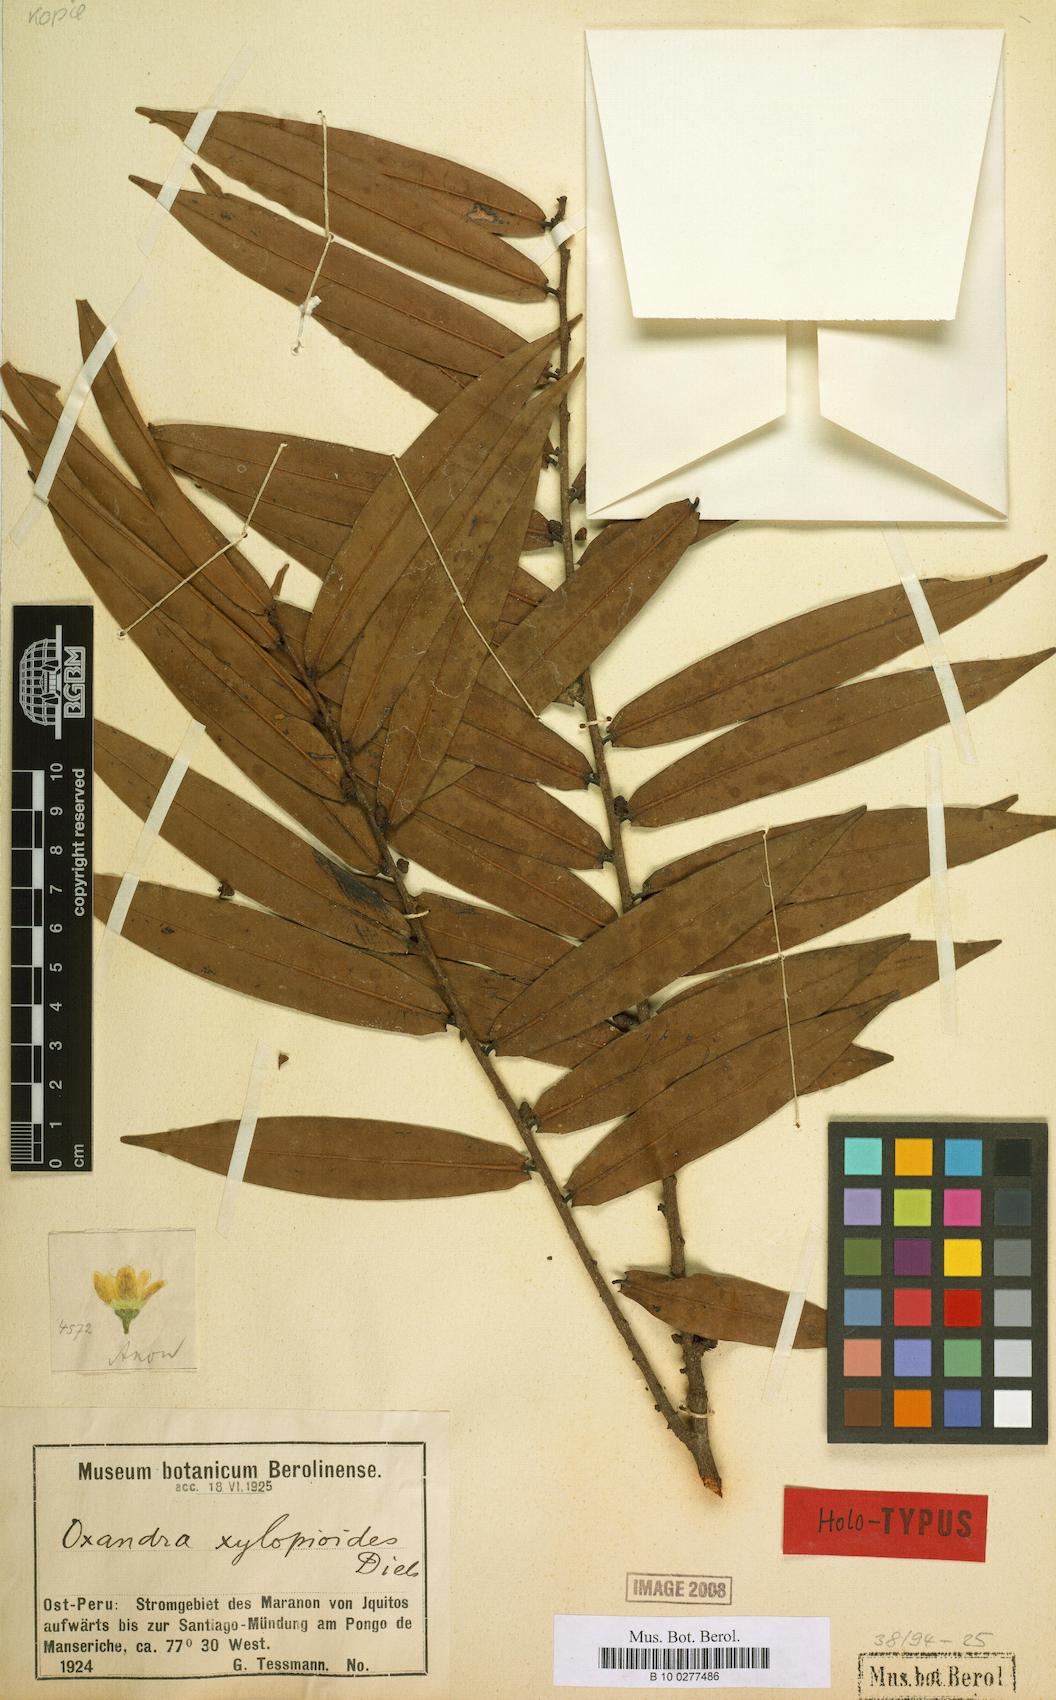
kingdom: Plantae
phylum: Tracheophyta
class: Magnoliopsida
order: Magnoliales
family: Annonaceae
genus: Oxandra
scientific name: Oxandra xylopioides
